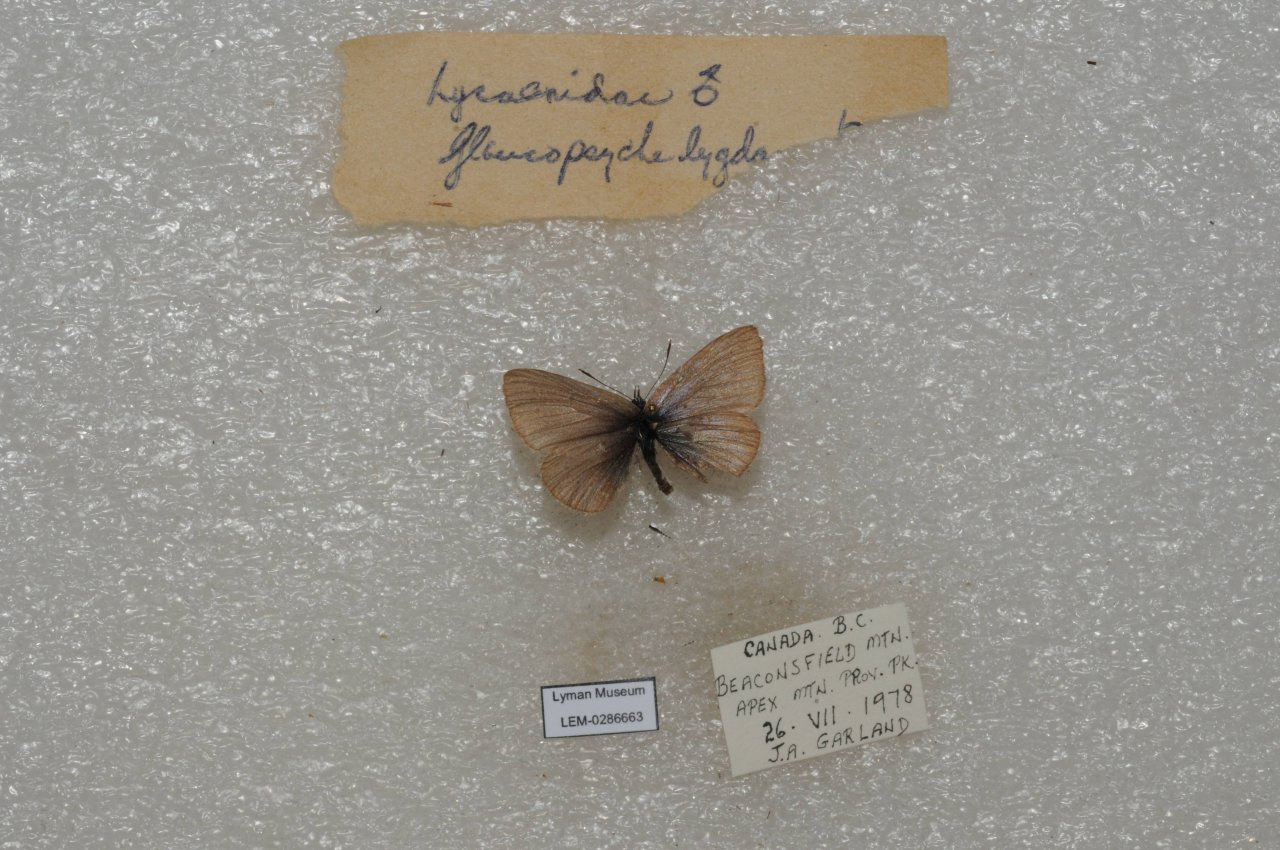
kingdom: Animalia
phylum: Arthropoda
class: Insecta
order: Lepidoptera
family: Lycaenidae
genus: Glaucopsyche
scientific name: Glaucopsyche lygdamus
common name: Silvery Blue
